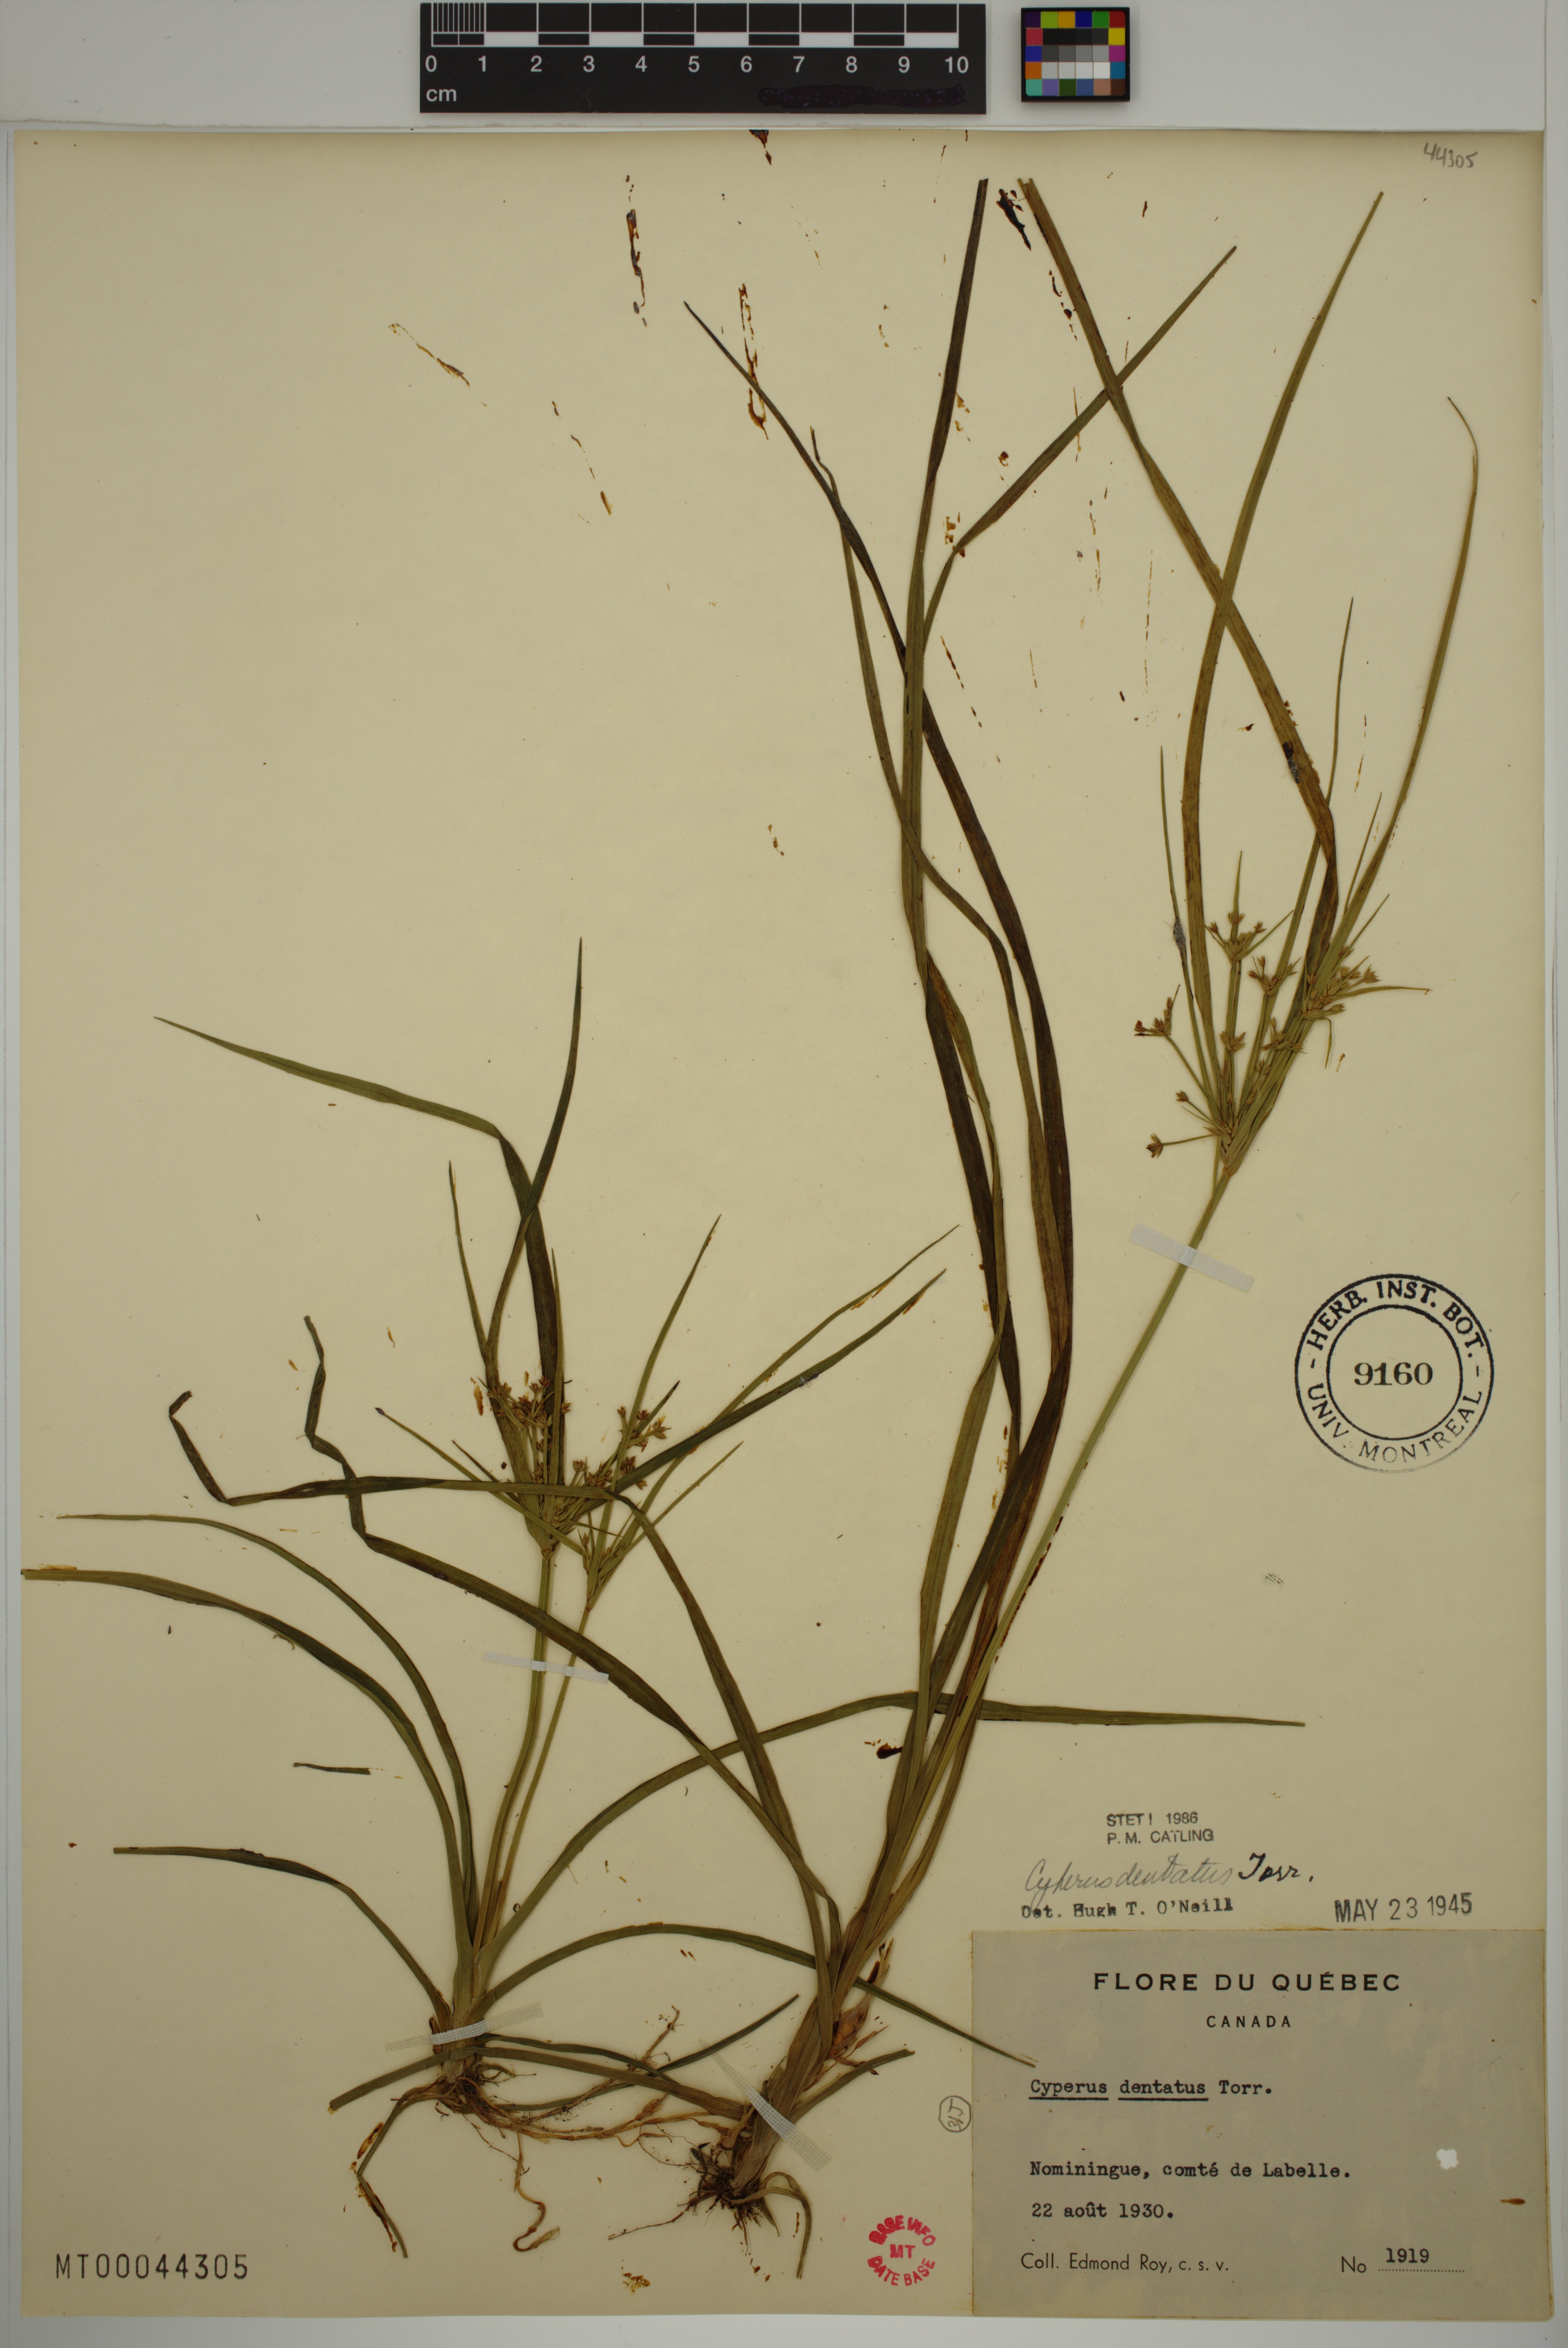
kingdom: Plantae
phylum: Tracheophyta
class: Liliopsida
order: Poales
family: Cyperaceae
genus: Cyperus
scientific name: Cyperus dentatus
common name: Dentate umbrella sedge
